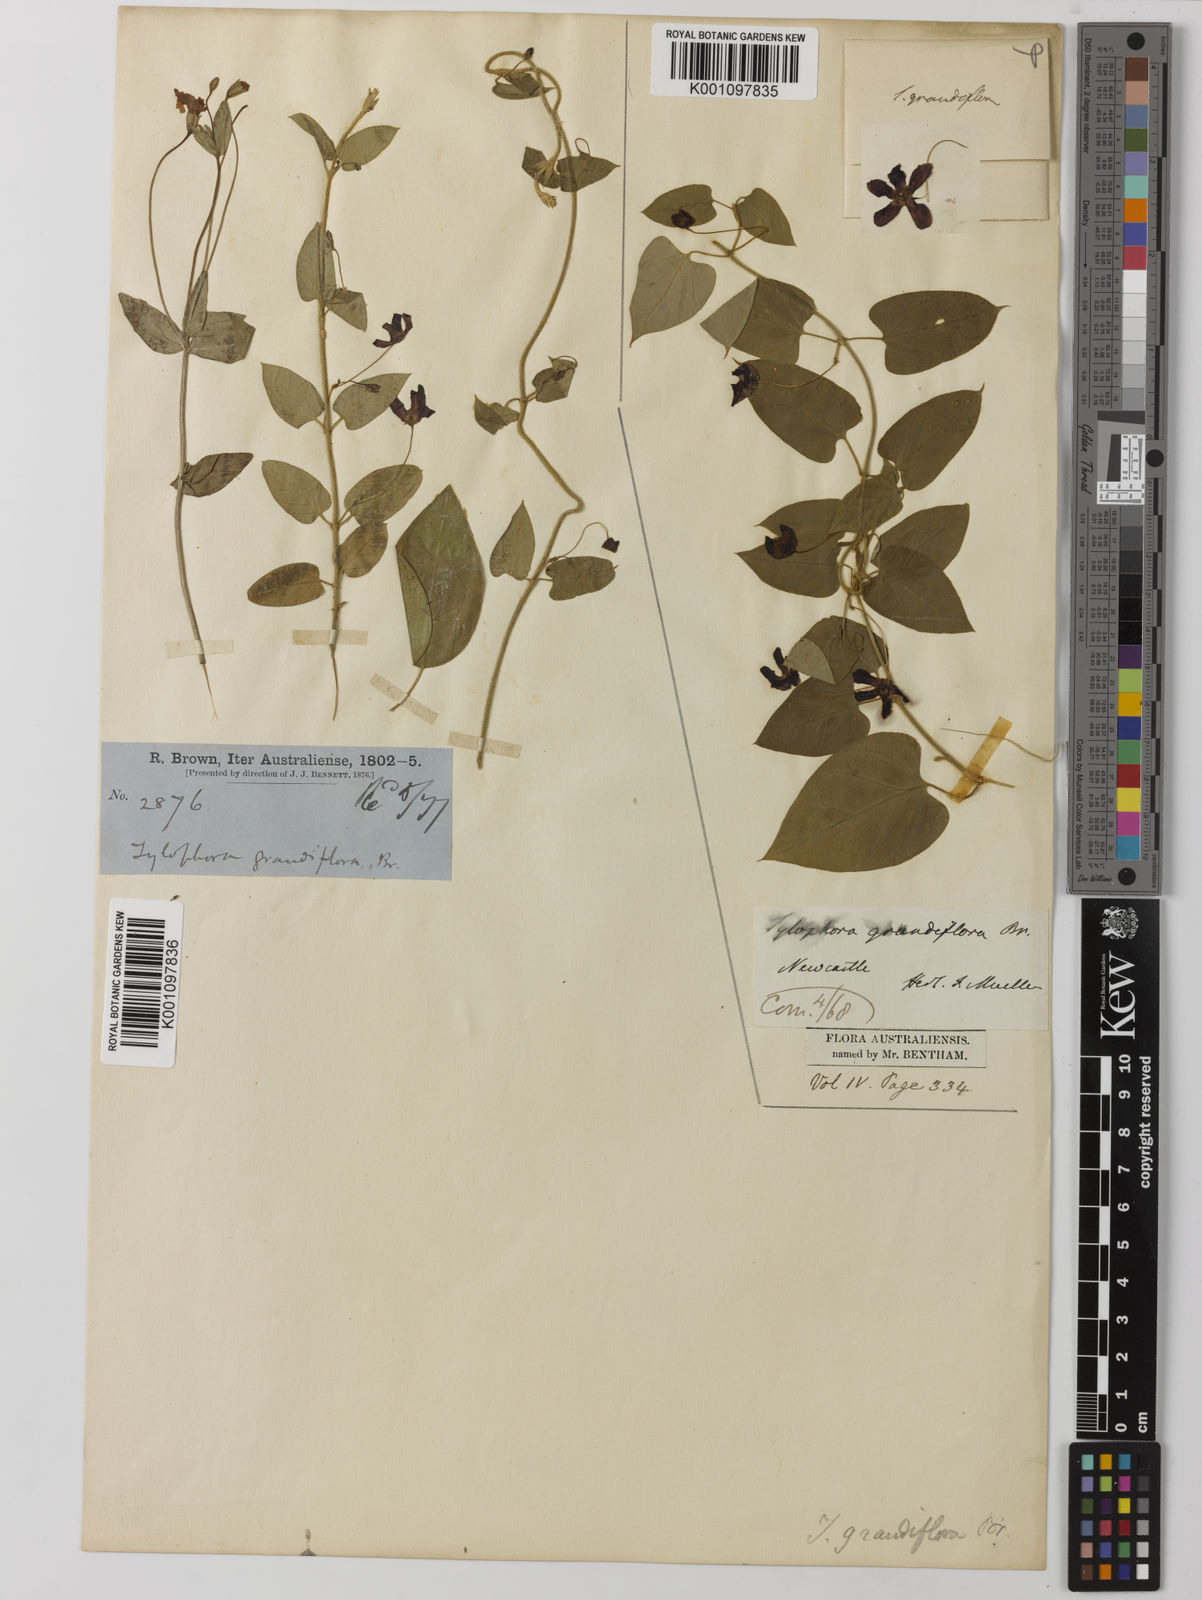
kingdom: Plantae
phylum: Tracheophyta
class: Magnoliopsida
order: Gentianales
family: Apocynaceae
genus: Vincetoxicum
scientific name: Vincetoxicum grandiflorum
